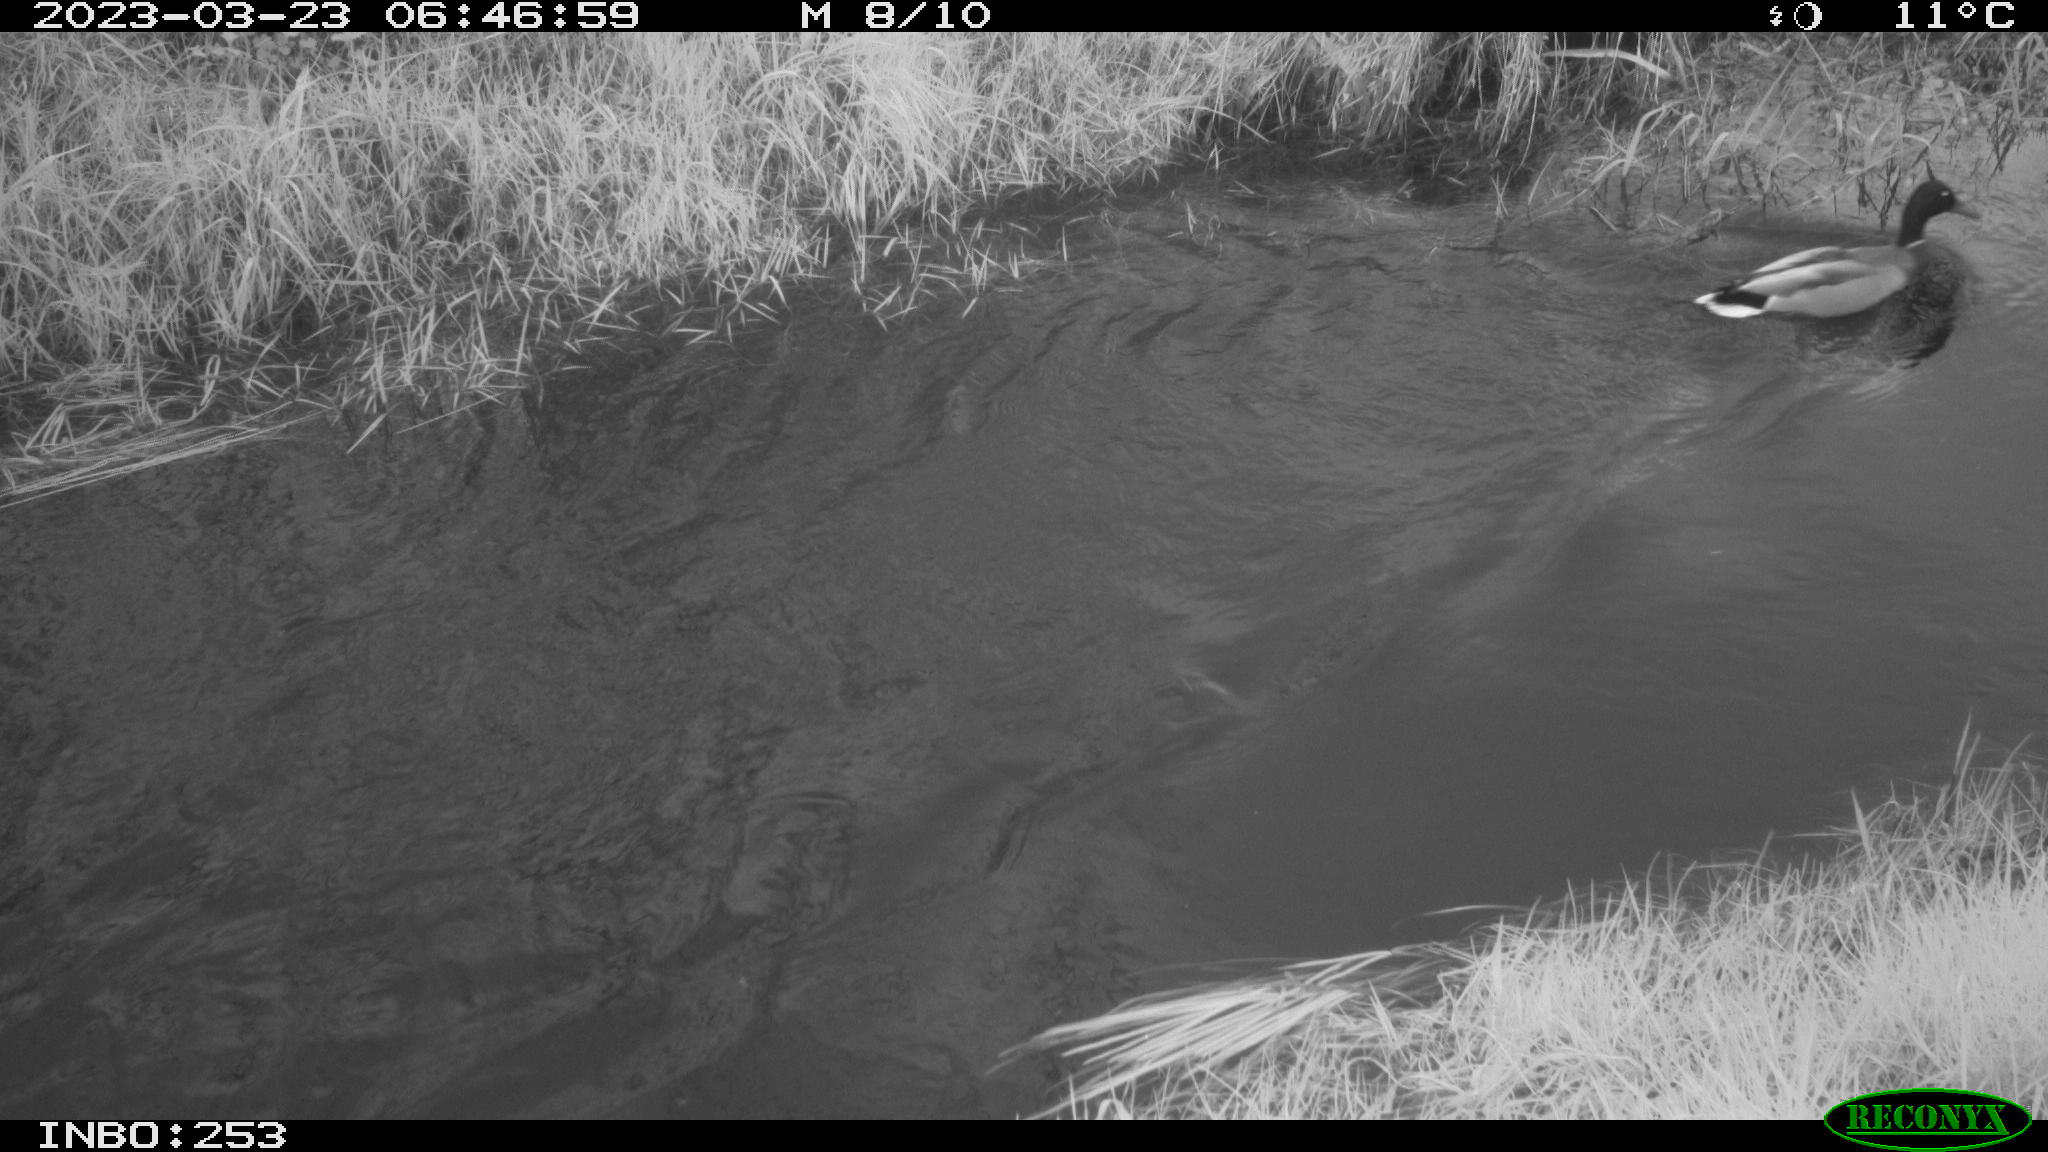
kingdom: Animalia
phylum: Chordata
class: Aves
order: Anseriformes
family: Anatidae
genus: Anas
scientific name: Anas
